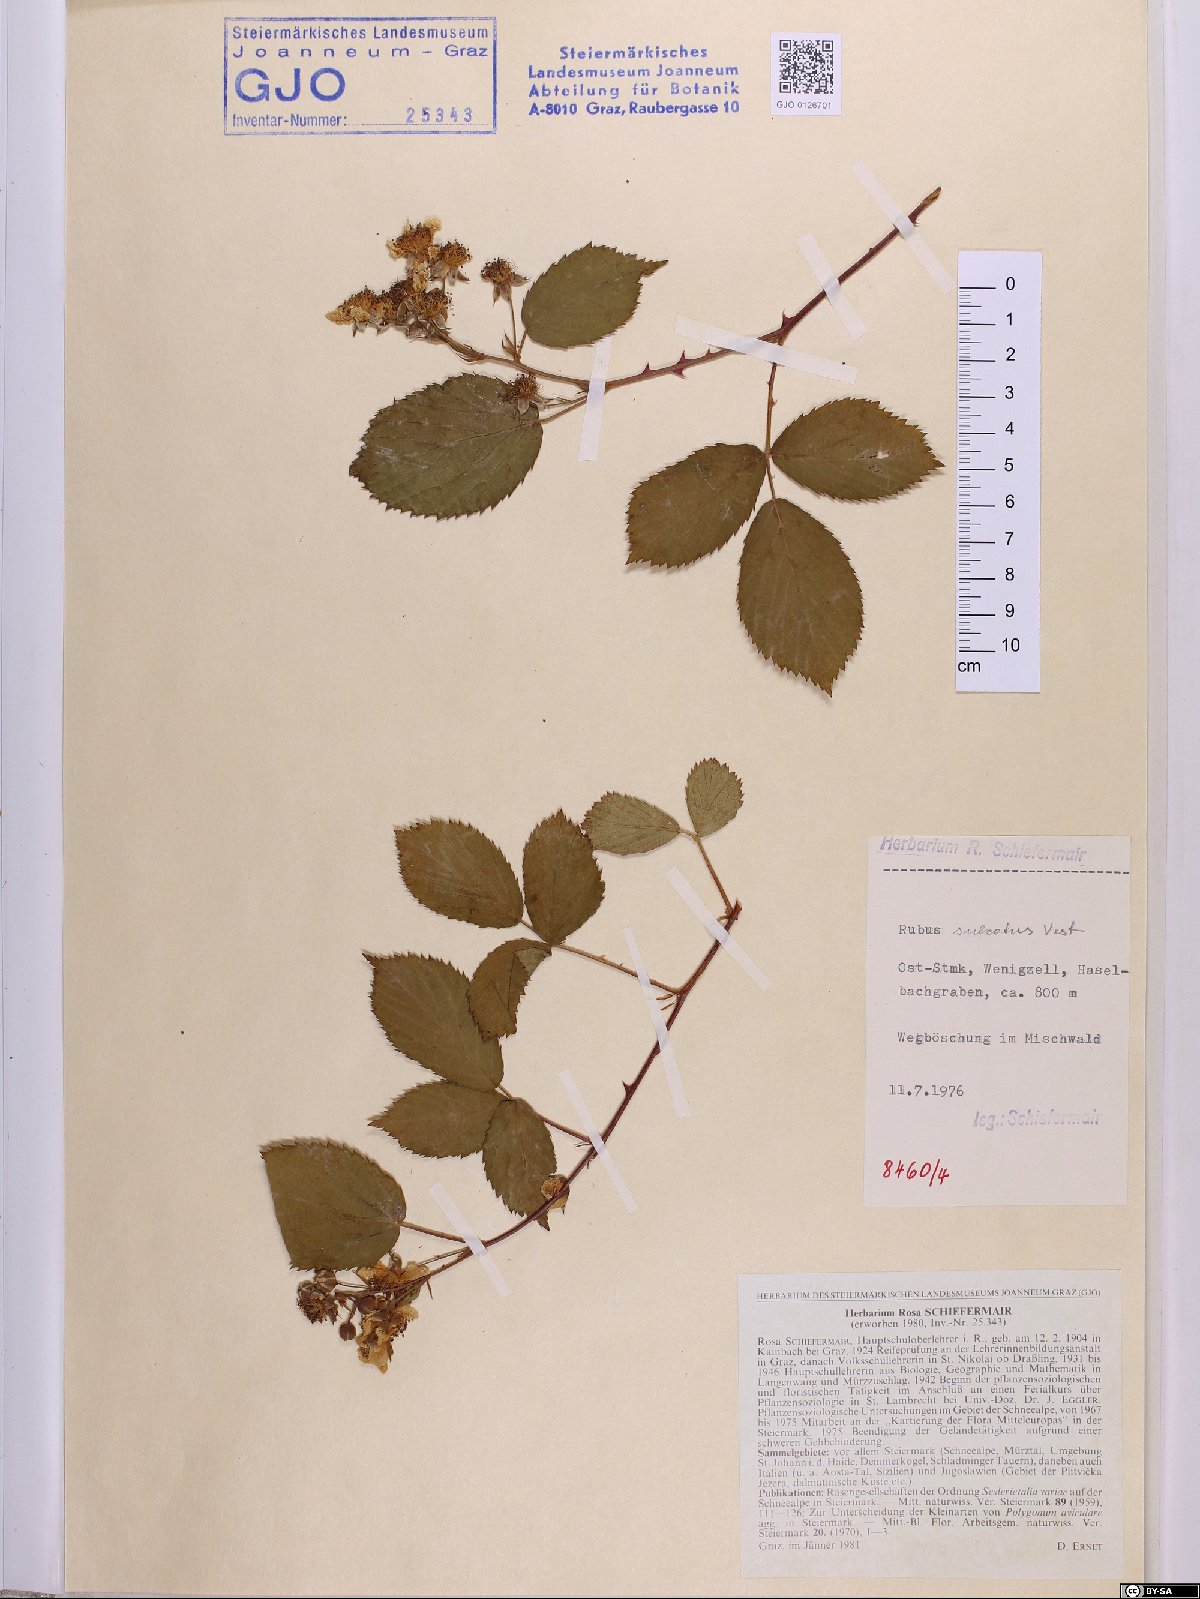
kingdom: Plantae
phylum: Tracheophyta
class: Magnoliopsida
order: Rosales
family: Rosaceae
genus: Rubus
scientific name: Rubus sulcatus
